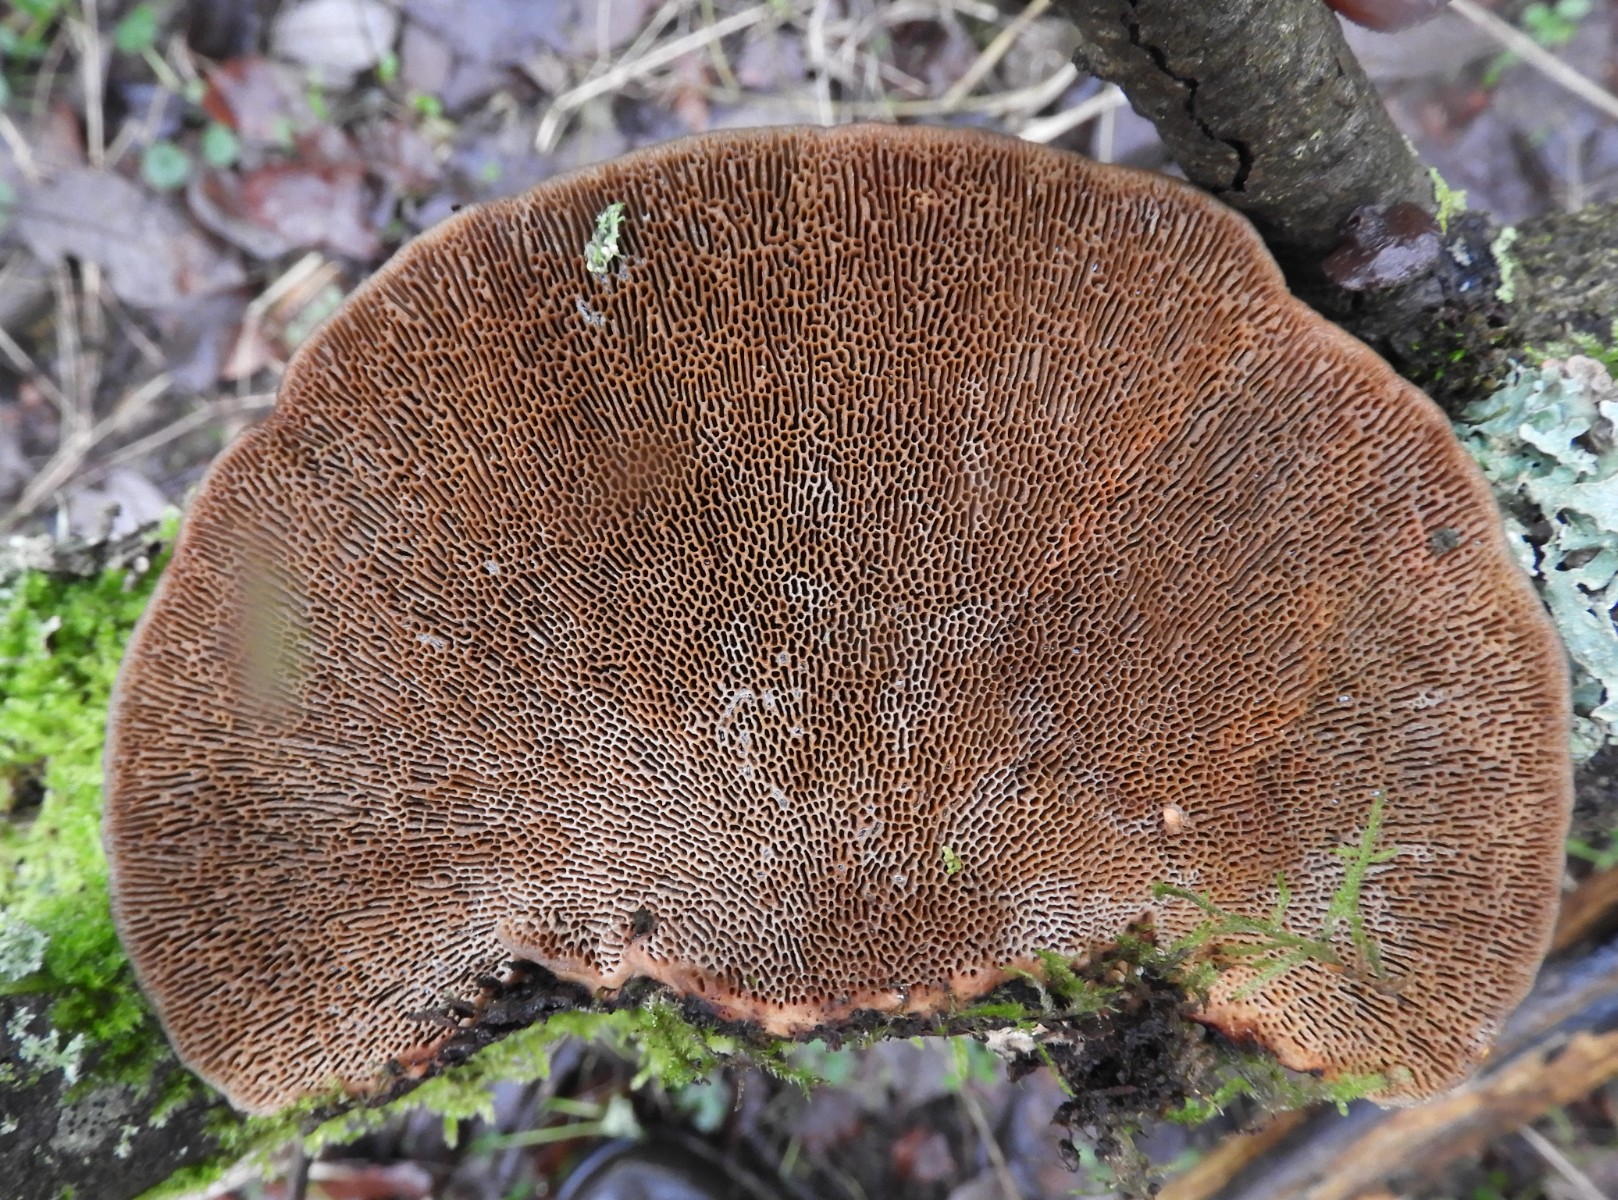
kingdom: Fungi
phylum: Basidiomycota
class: Agaricomycetes
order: Polyporales
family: Polyporaceae
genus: Daedaleopsis
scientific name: Daedaleopsis confragosa
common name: rødmende læderporesvamp
